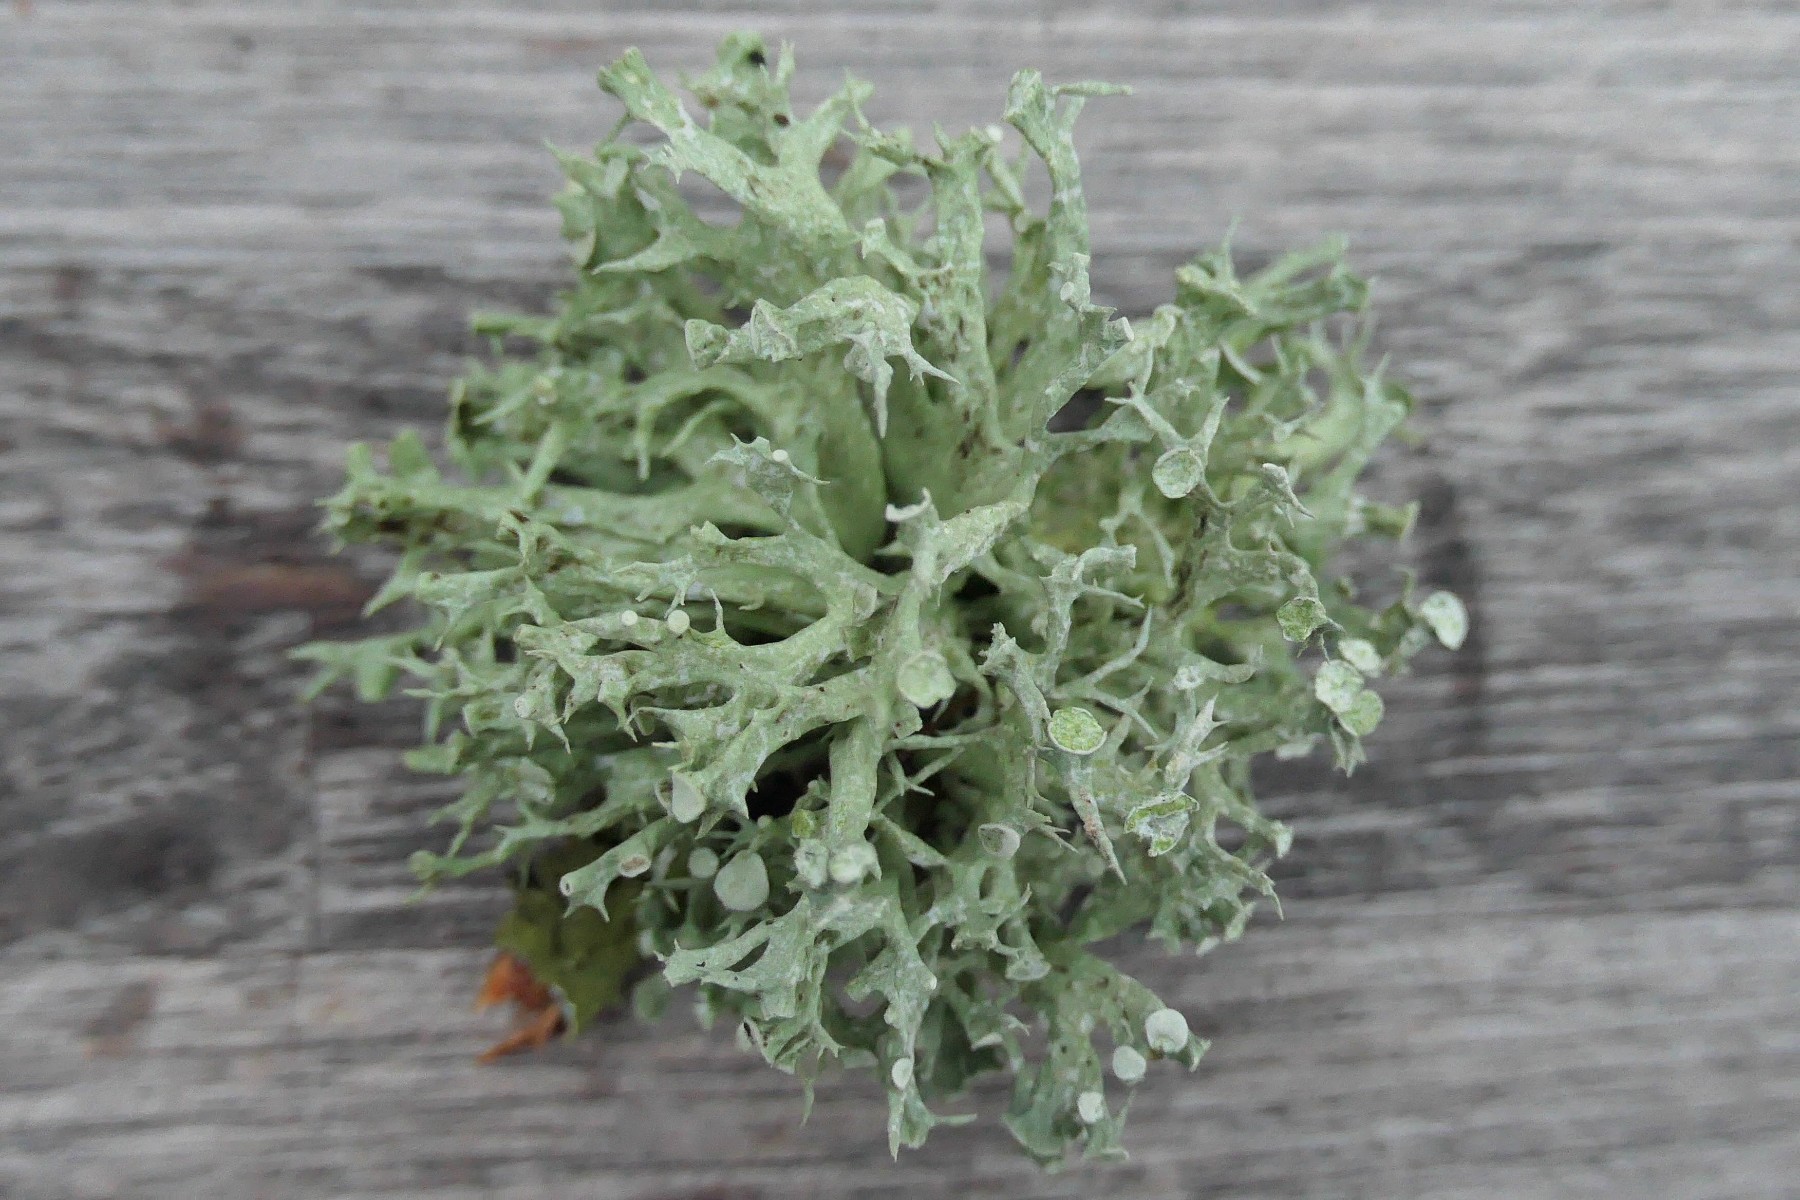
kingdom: Fungi
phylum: Ascomycota
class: Lecanoromycetes
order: Lecanorales
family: Ramalinaceae
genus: Ramalina
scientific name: Ramalina fastigiata
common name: tue-grenlav
